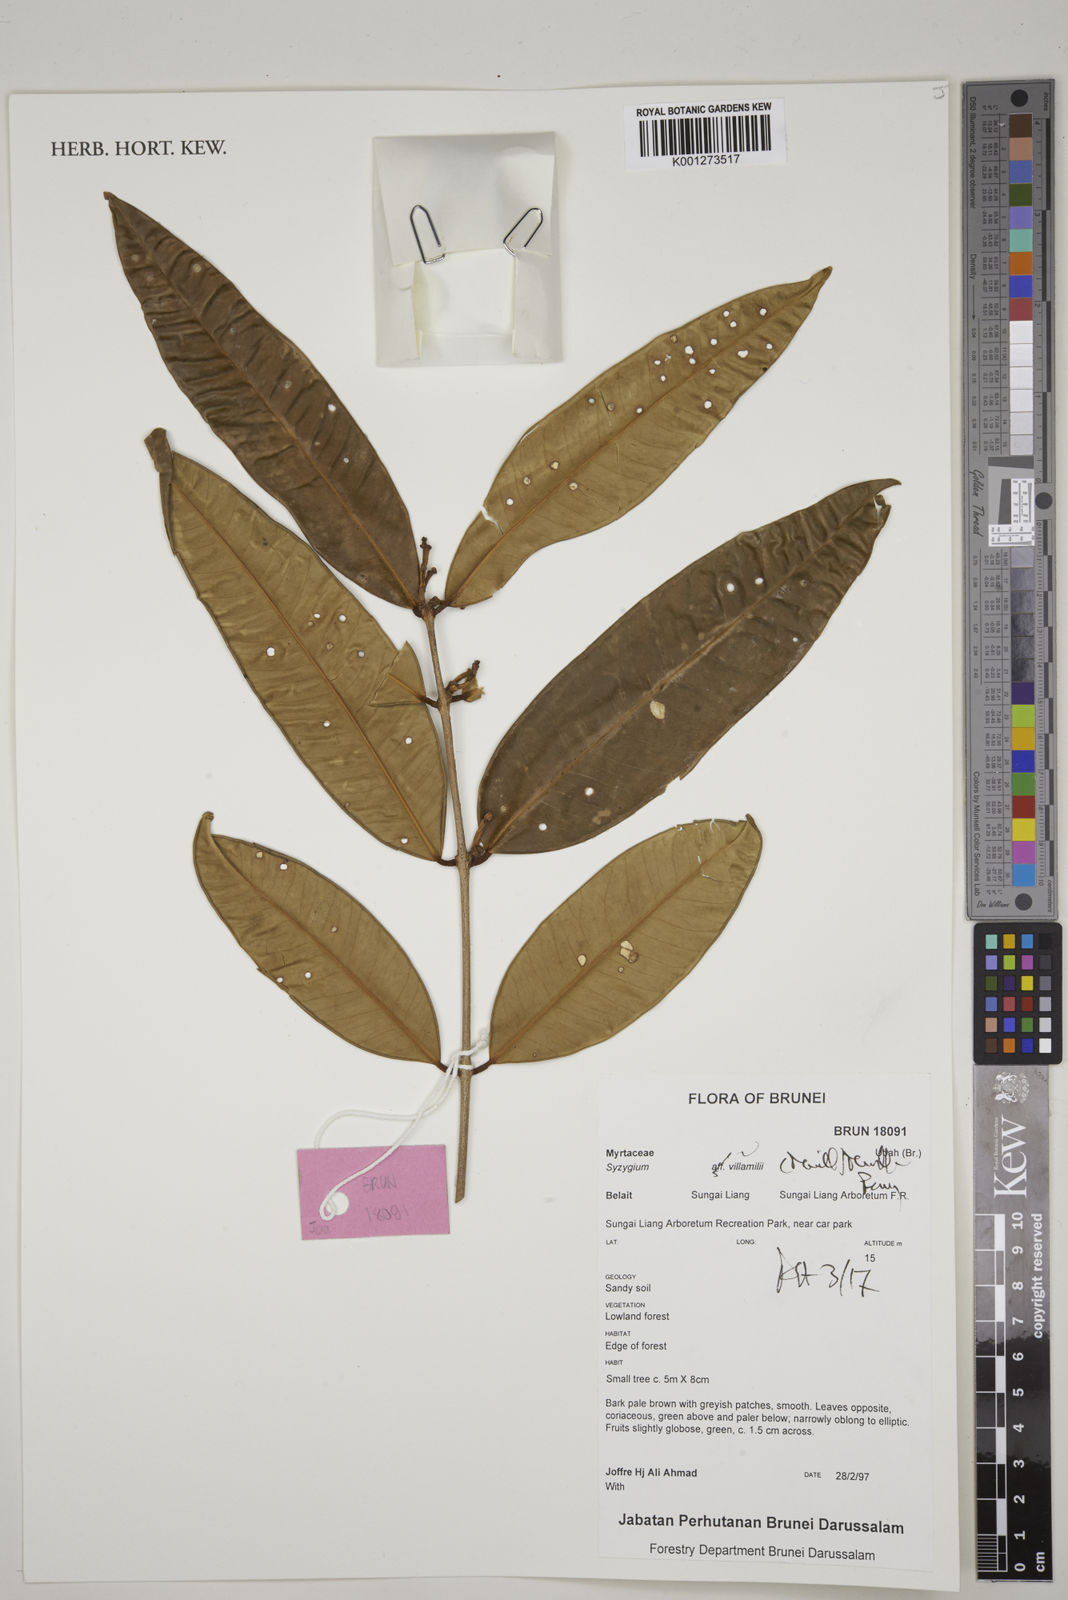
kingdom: Plantae
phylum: Tracheophyta
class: Magnoliopsida
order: Myrtales
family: Myrtaceae
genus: Syzygium
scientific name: Syzygium villamilii
